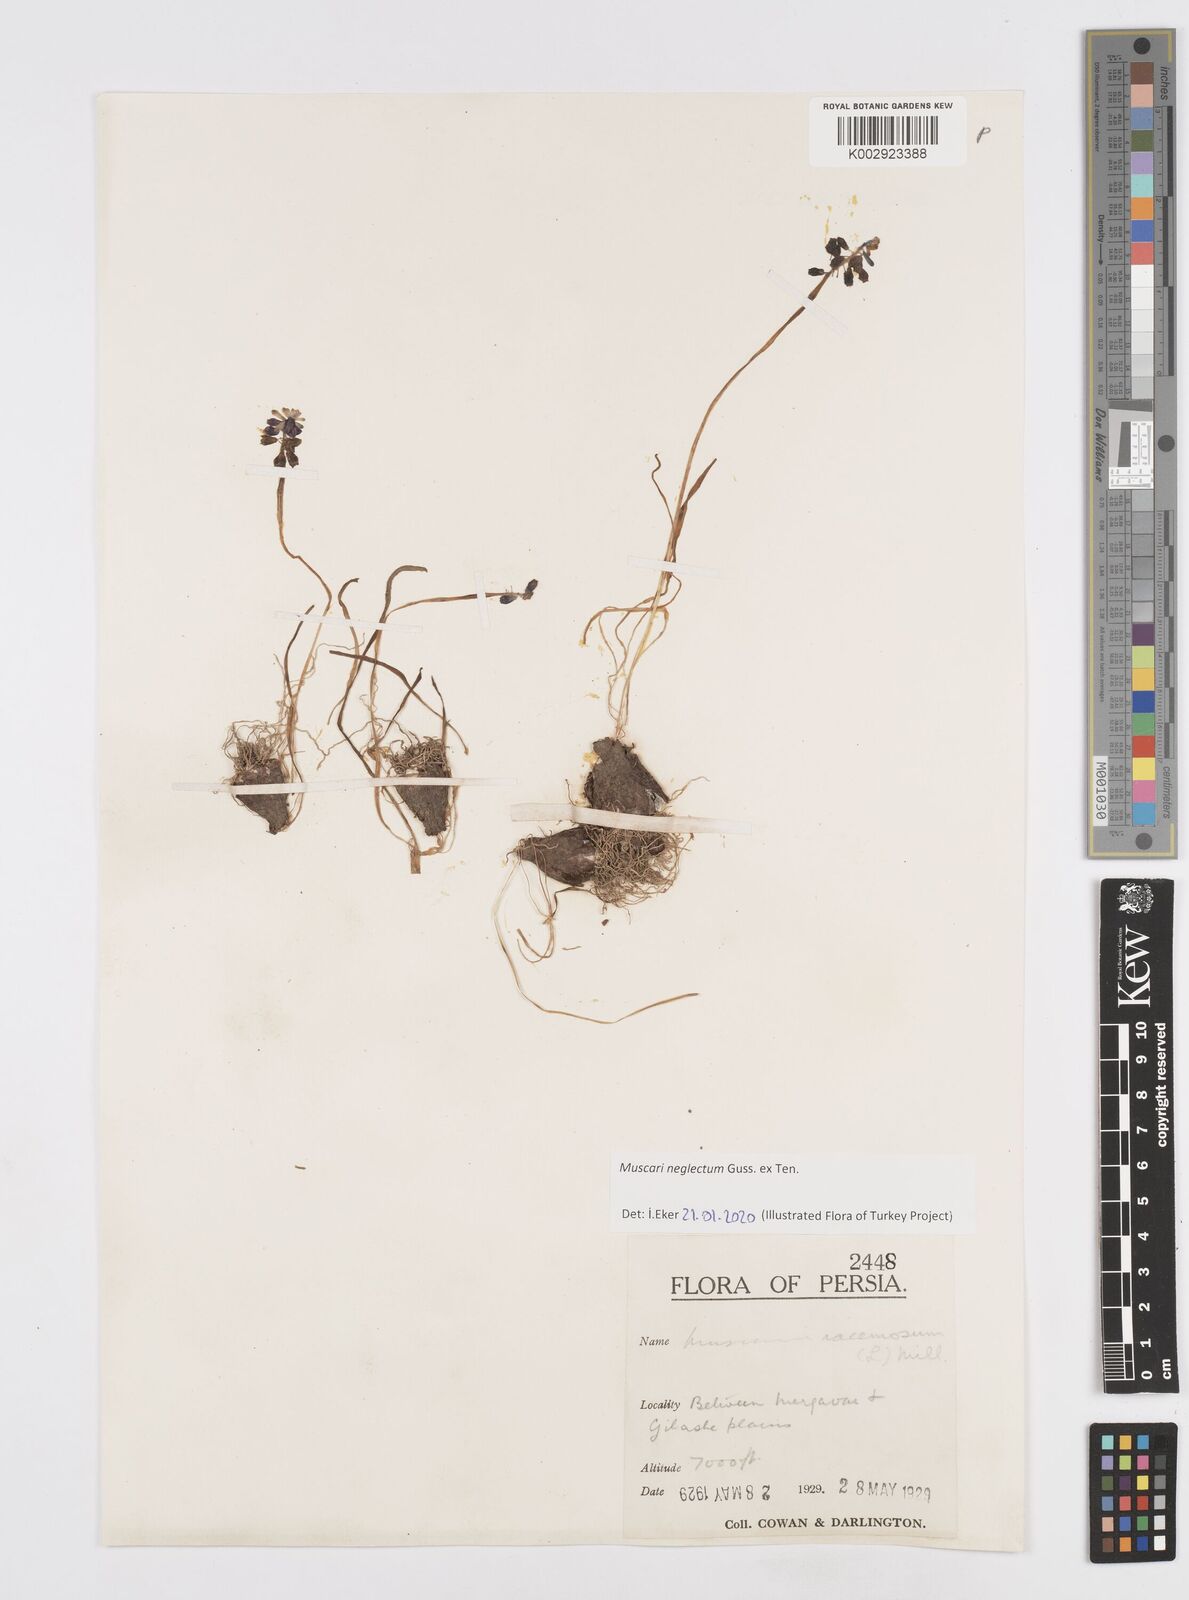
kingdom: Plantae
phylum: Tracheophyta
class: Liliopsida
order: Asparagales
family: Asparagaceae
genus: Muscari
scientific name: Muscari neglectum
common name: Grape-hyacinth
